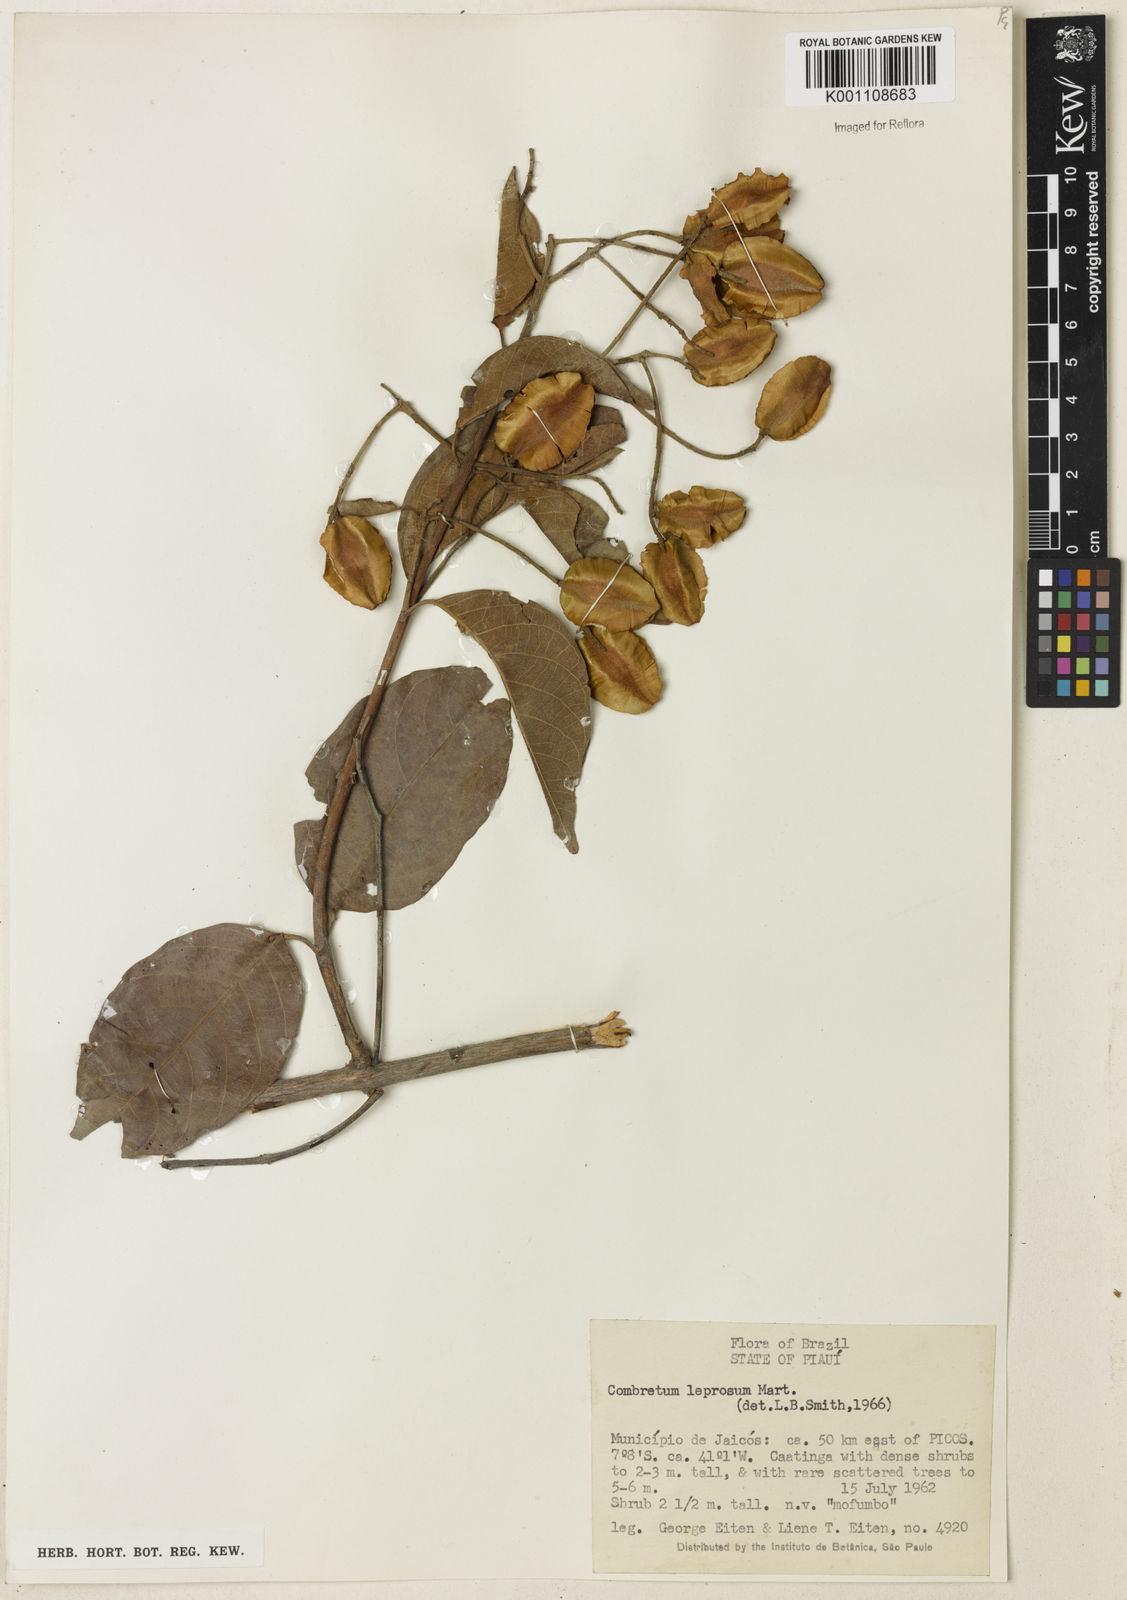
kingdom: Plantae
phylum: Tracheophyta
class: Magnoliopsida
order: Myrtales
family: Combretaceae
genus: Combretum
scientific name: Combretum leprosum
